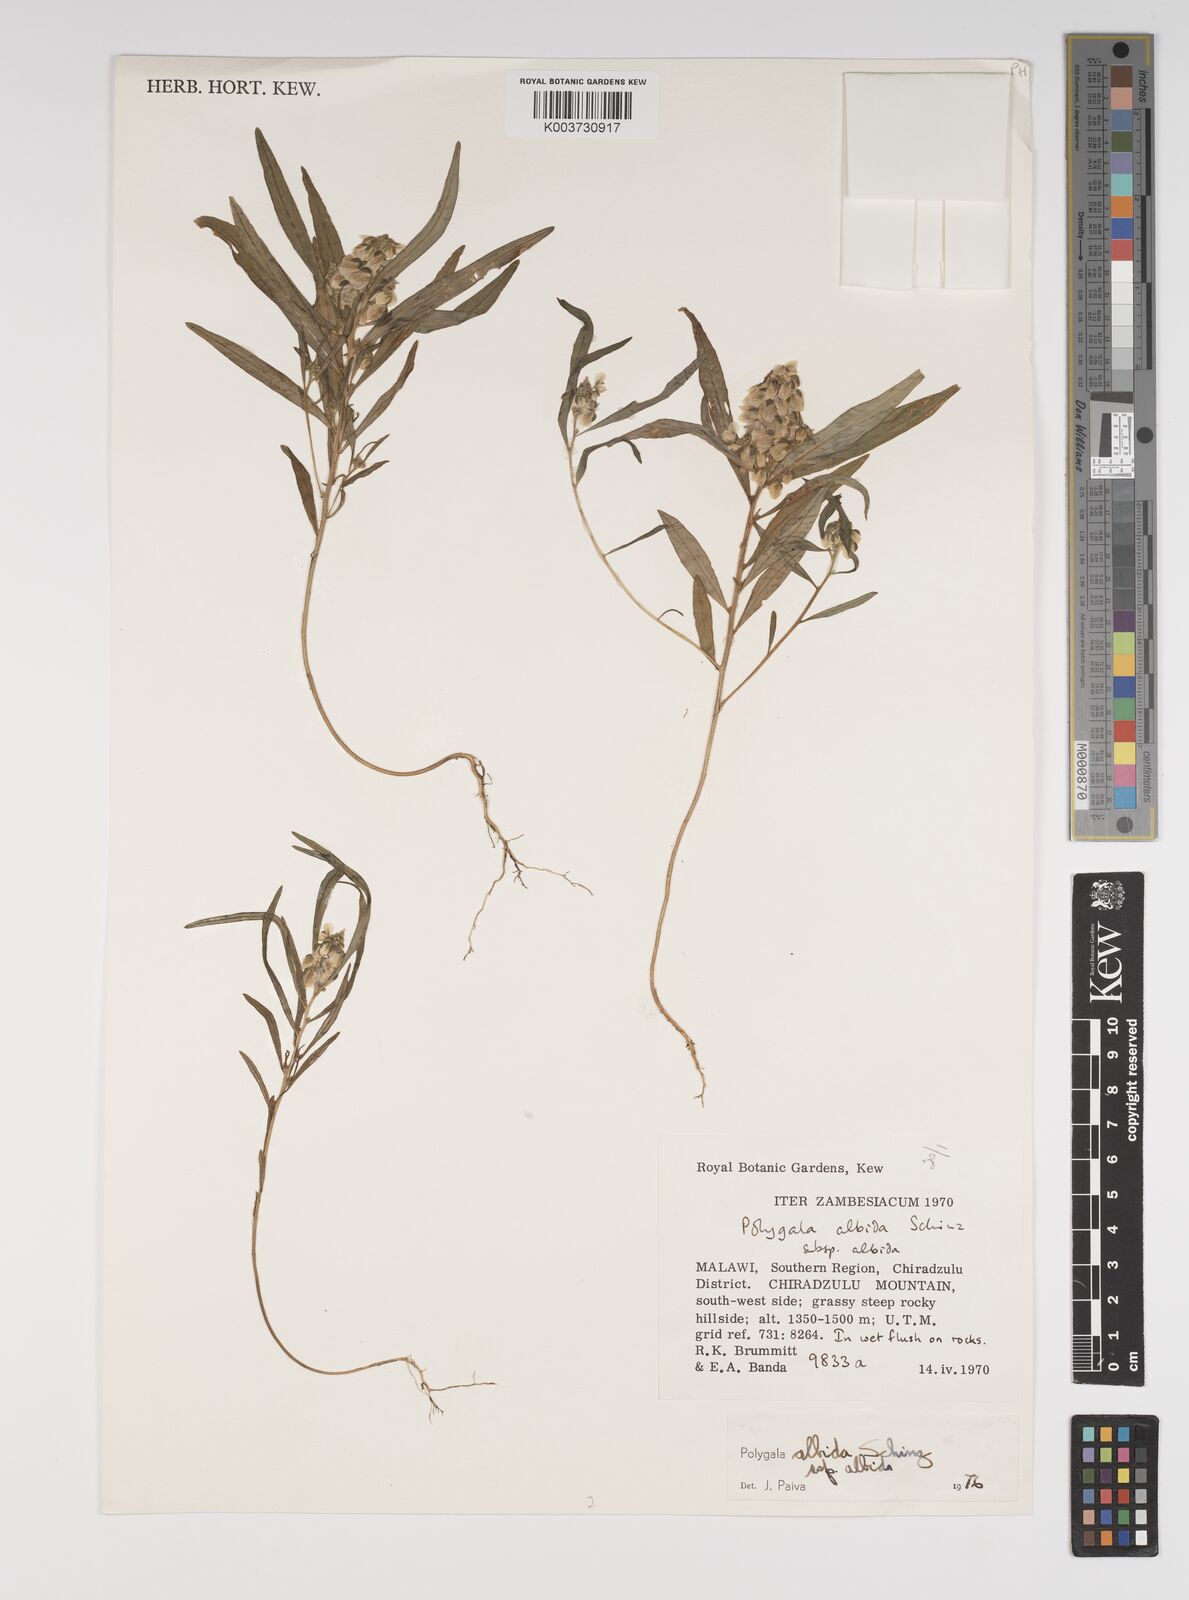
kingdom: Plantae
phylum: Tracheophyta
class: Magnoliopsida
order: Fabales
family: Polygalaceae
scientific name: Polygalaceae
